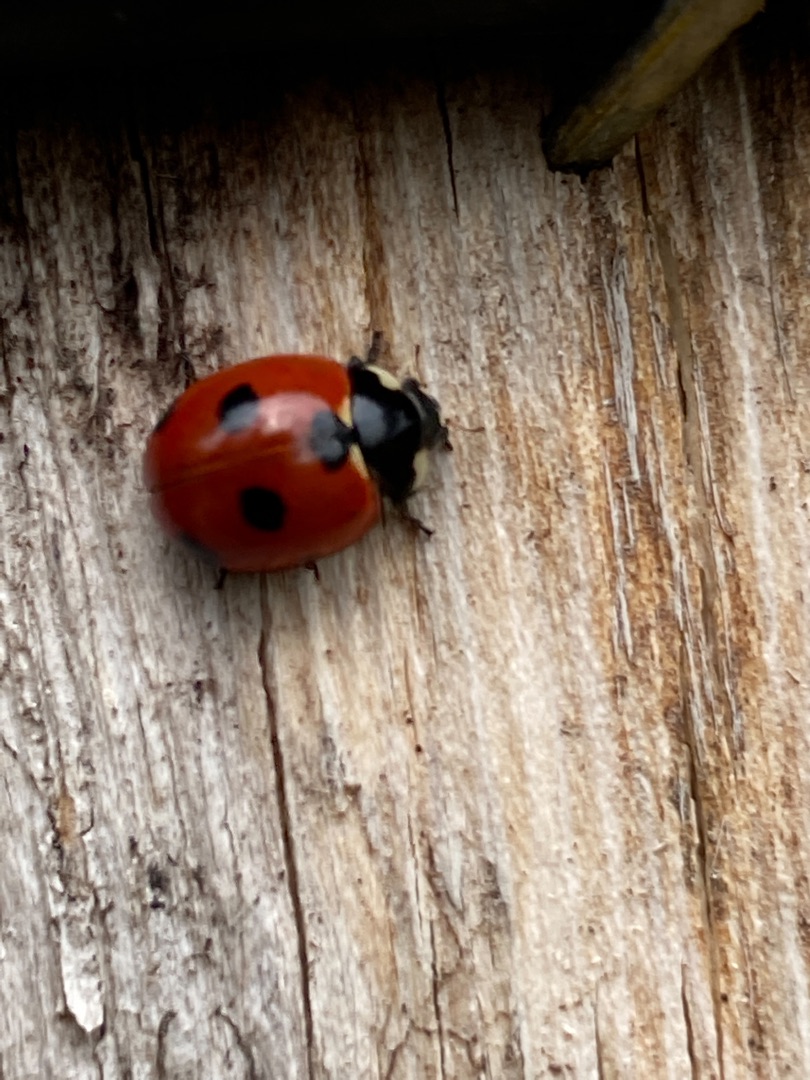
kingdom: Animalia
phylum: Arthropoda
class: Insecta
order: Coleoptera
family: Coccinellidae
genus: Coccinella
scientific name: Coccinella quinquepunctata
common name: Femplettet mariehøne
